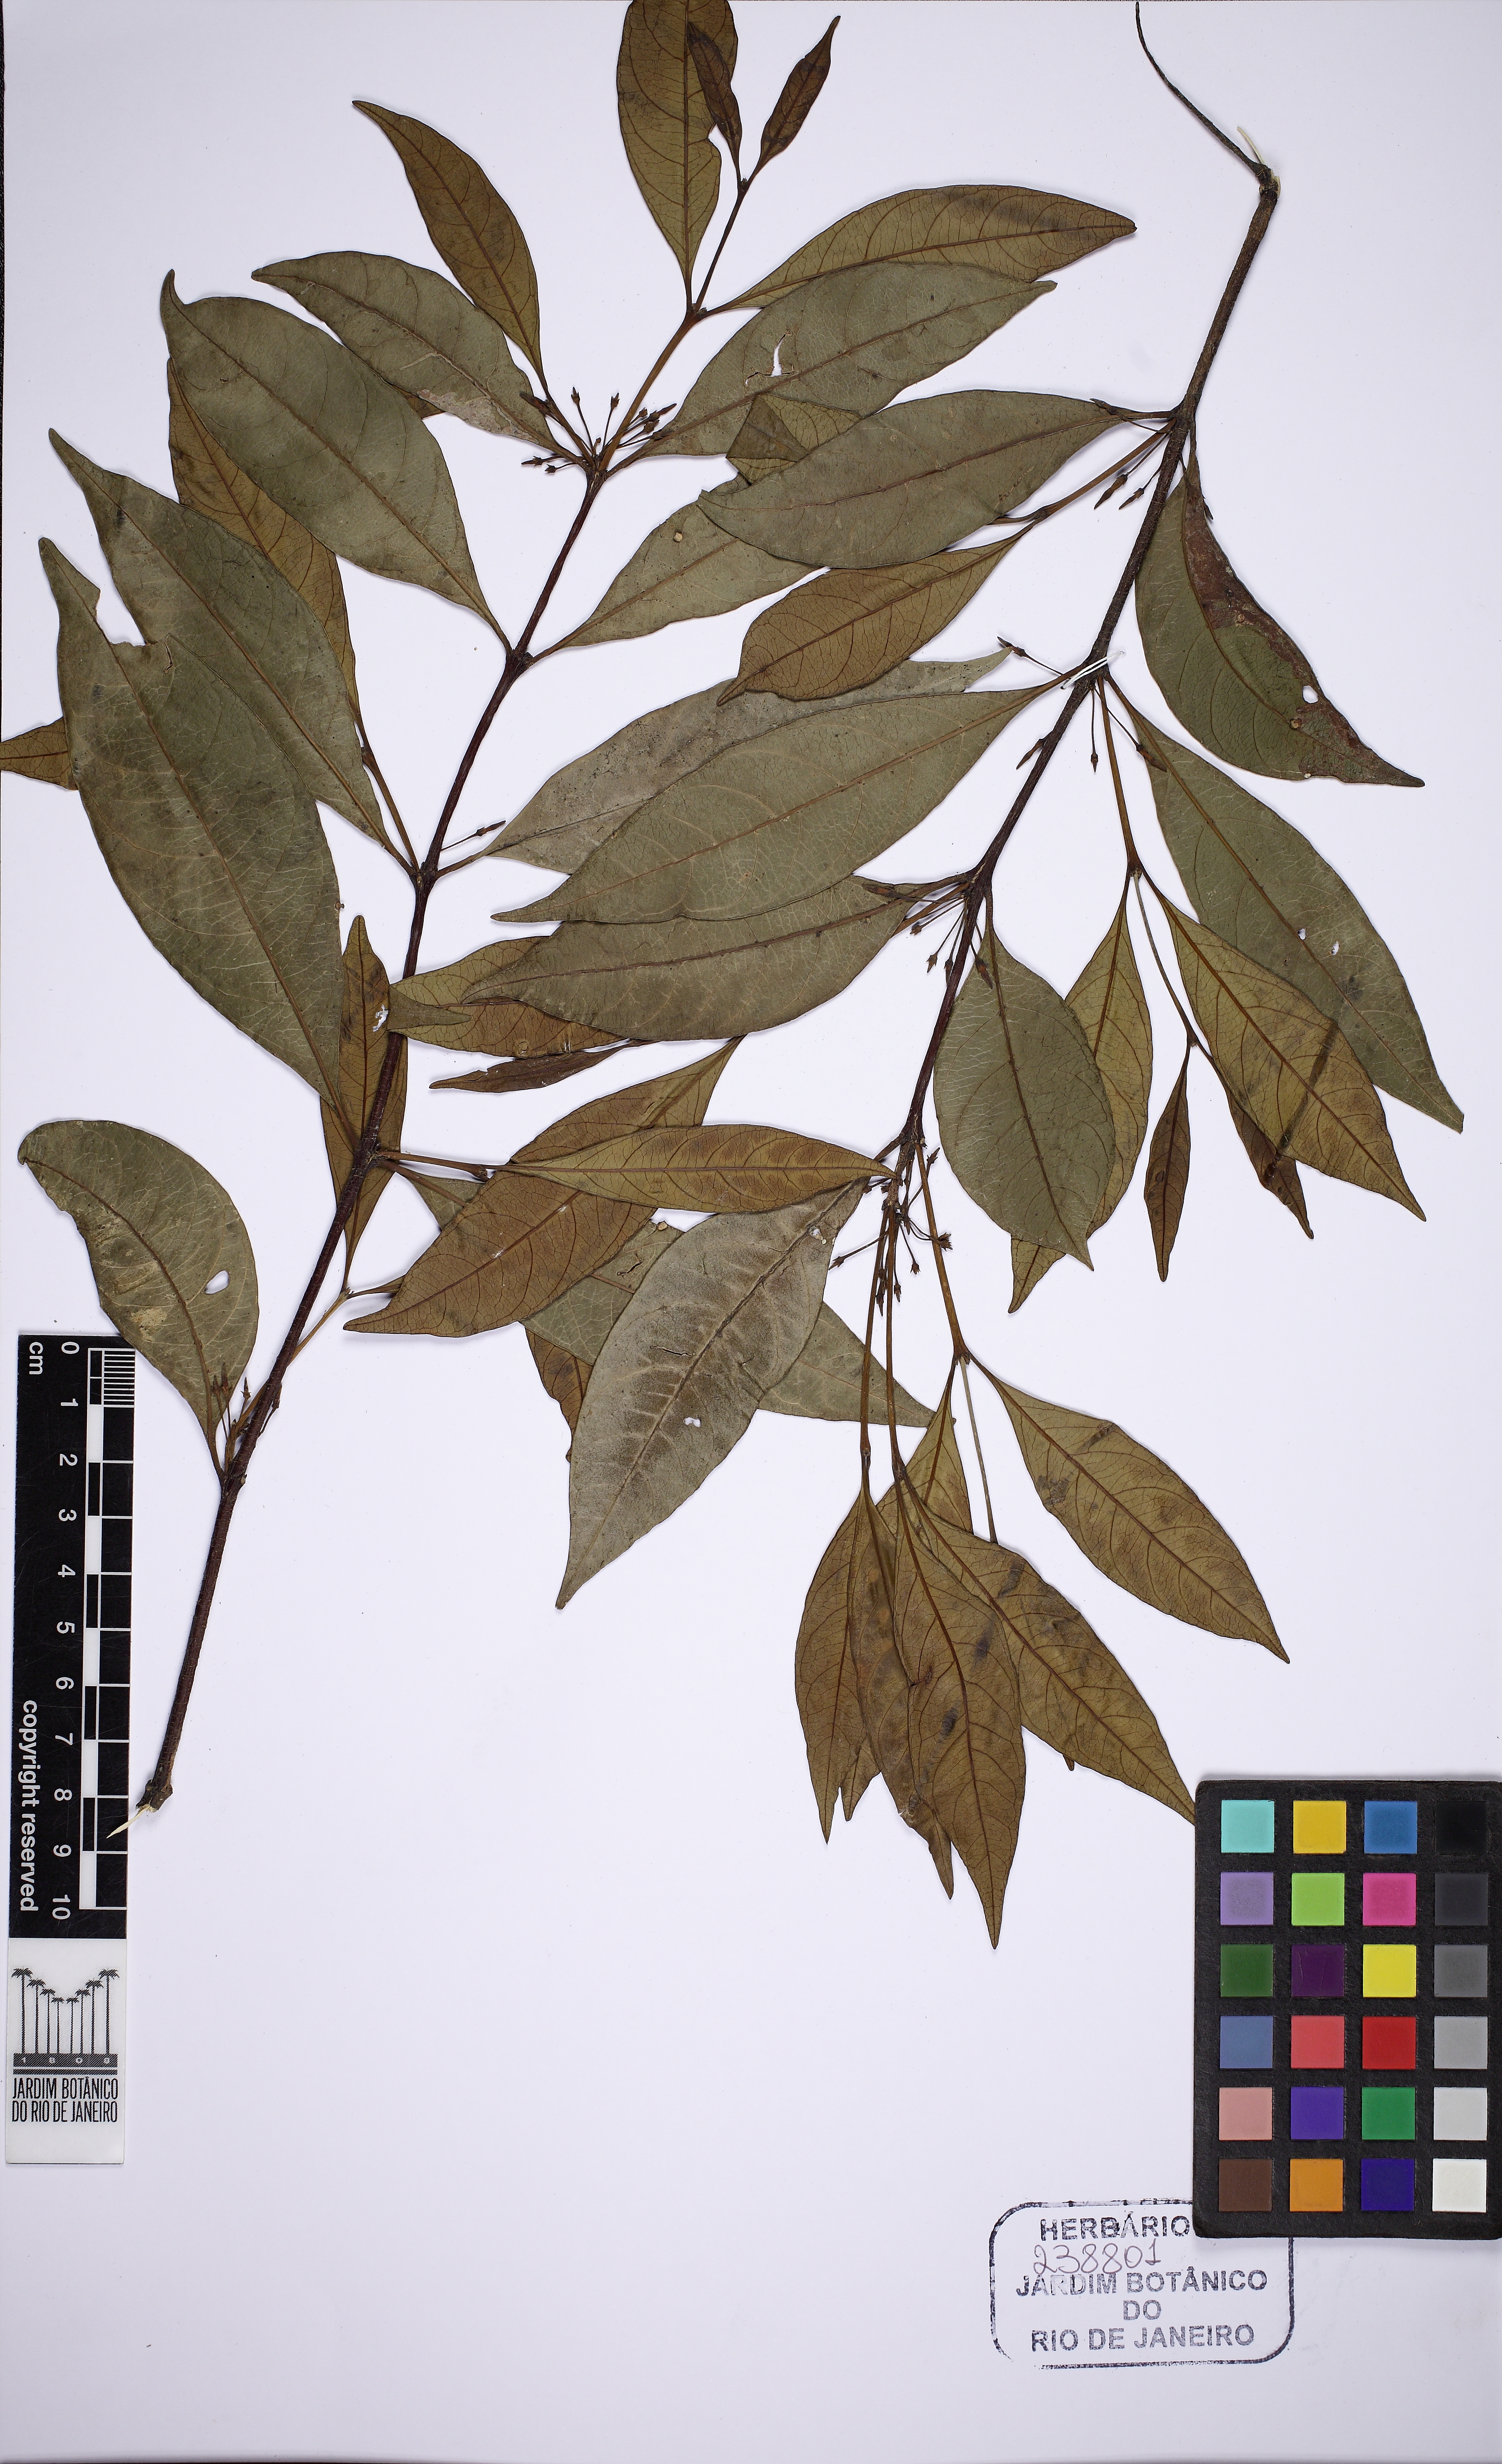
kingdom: Plantae
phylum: Tracheophyta
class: Magnoliopsida
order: Gentianales
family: Apocynaceae
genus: Malouetia
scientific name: Malouetia cestroides
